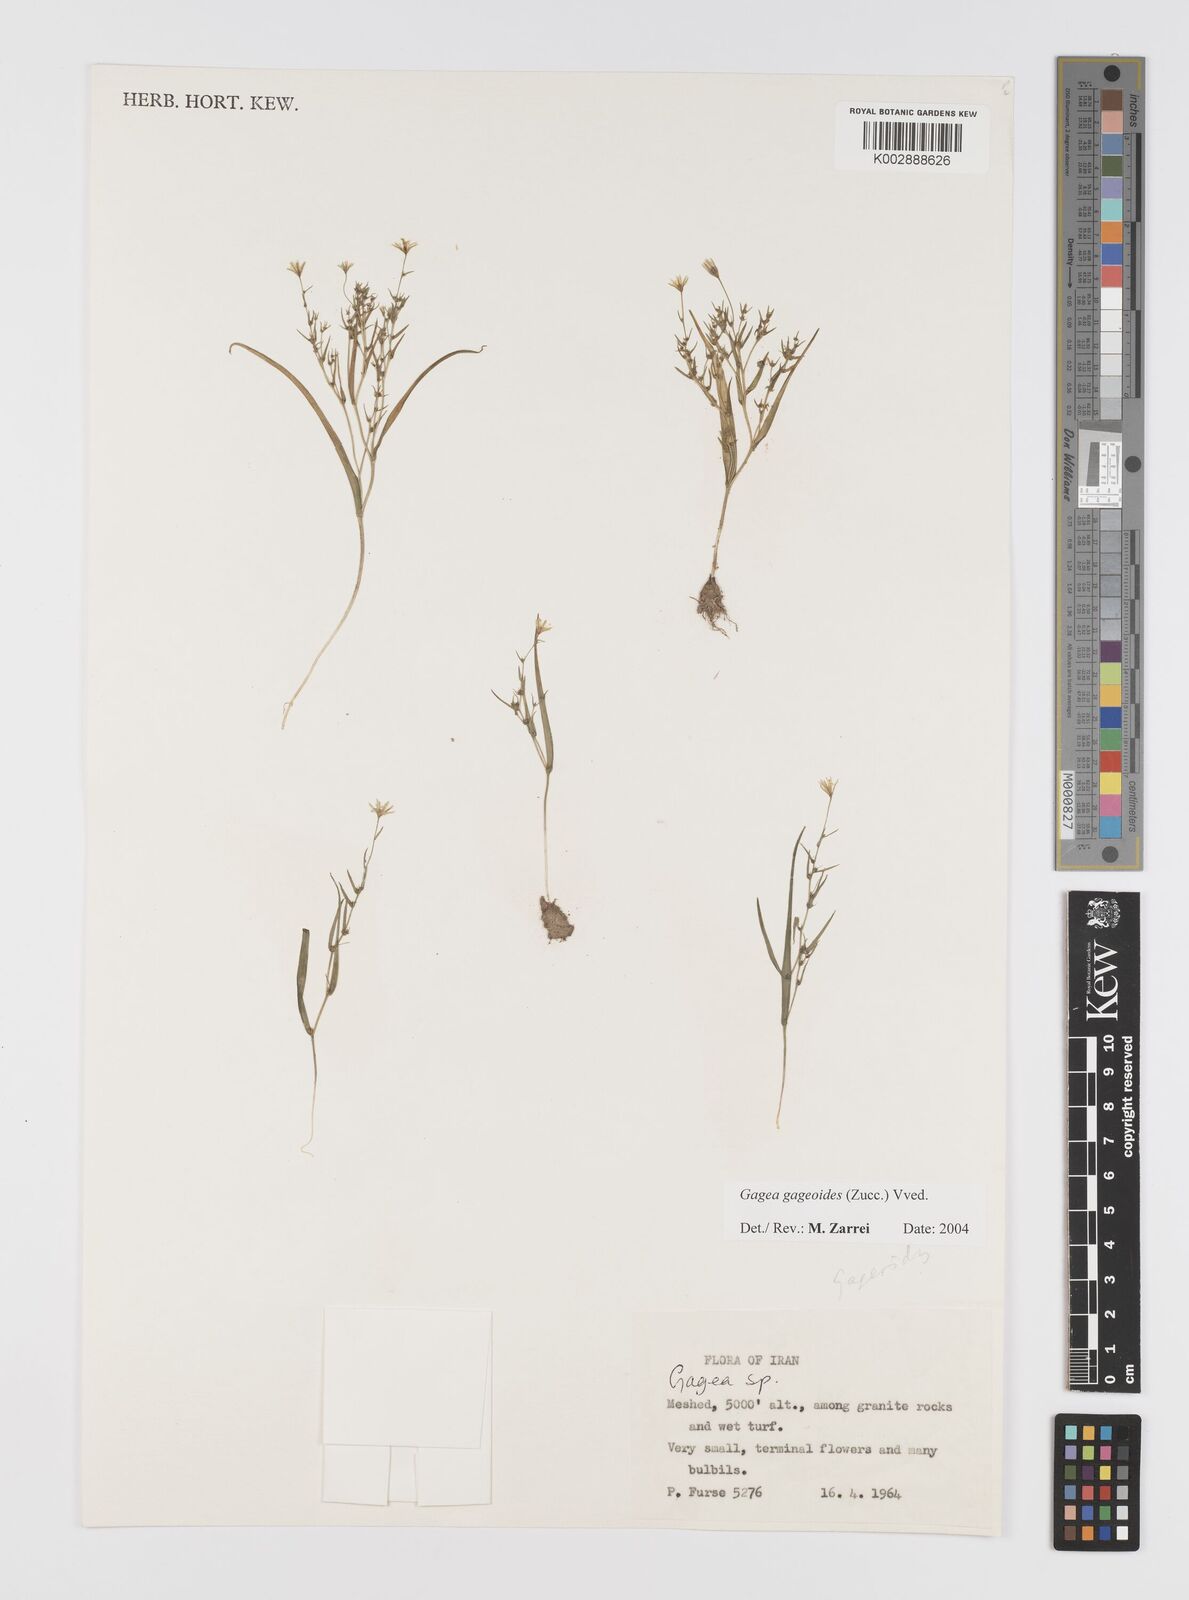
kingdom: Plantae
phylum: Tracheophyta
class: Liliopsida
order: Liliales
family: Liliaceae
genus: Gagea
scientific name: Gagea gageoides
